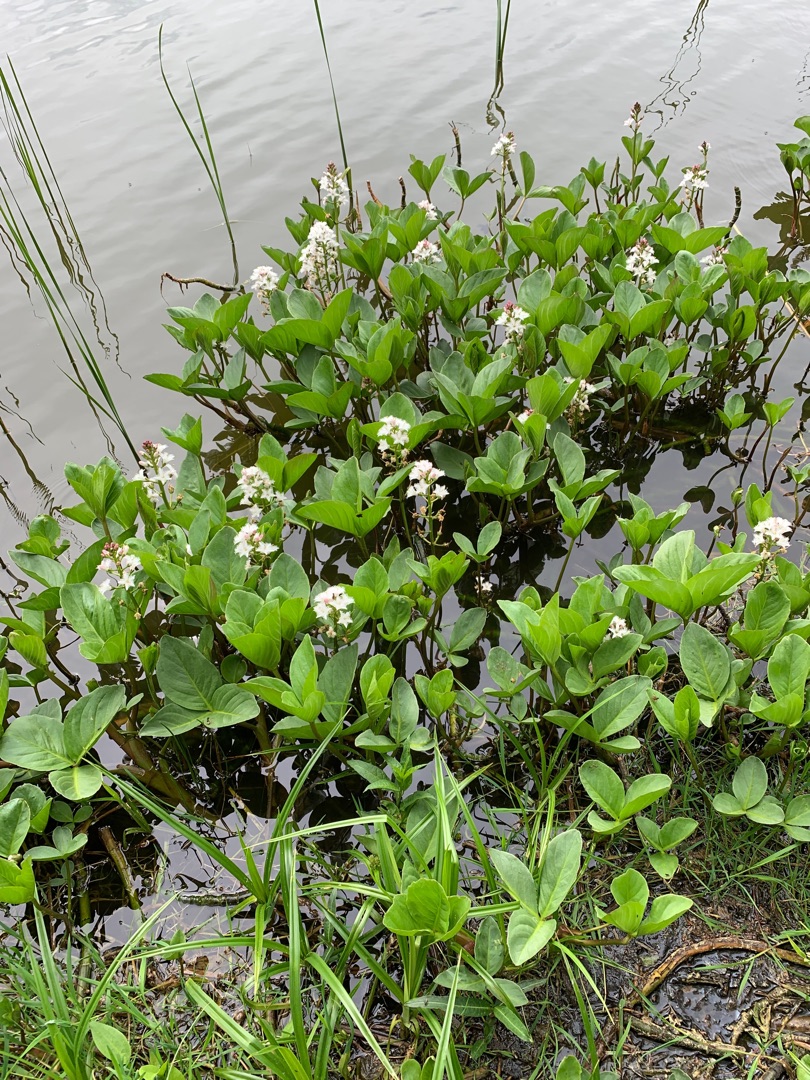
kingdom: Plantae
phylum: Tracheophyta
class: Magnoliopsida
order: Asterales
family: Menyanthaceae
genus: Menyanthes
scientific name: Menyanthes trifoliata
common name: Bukkeblad
